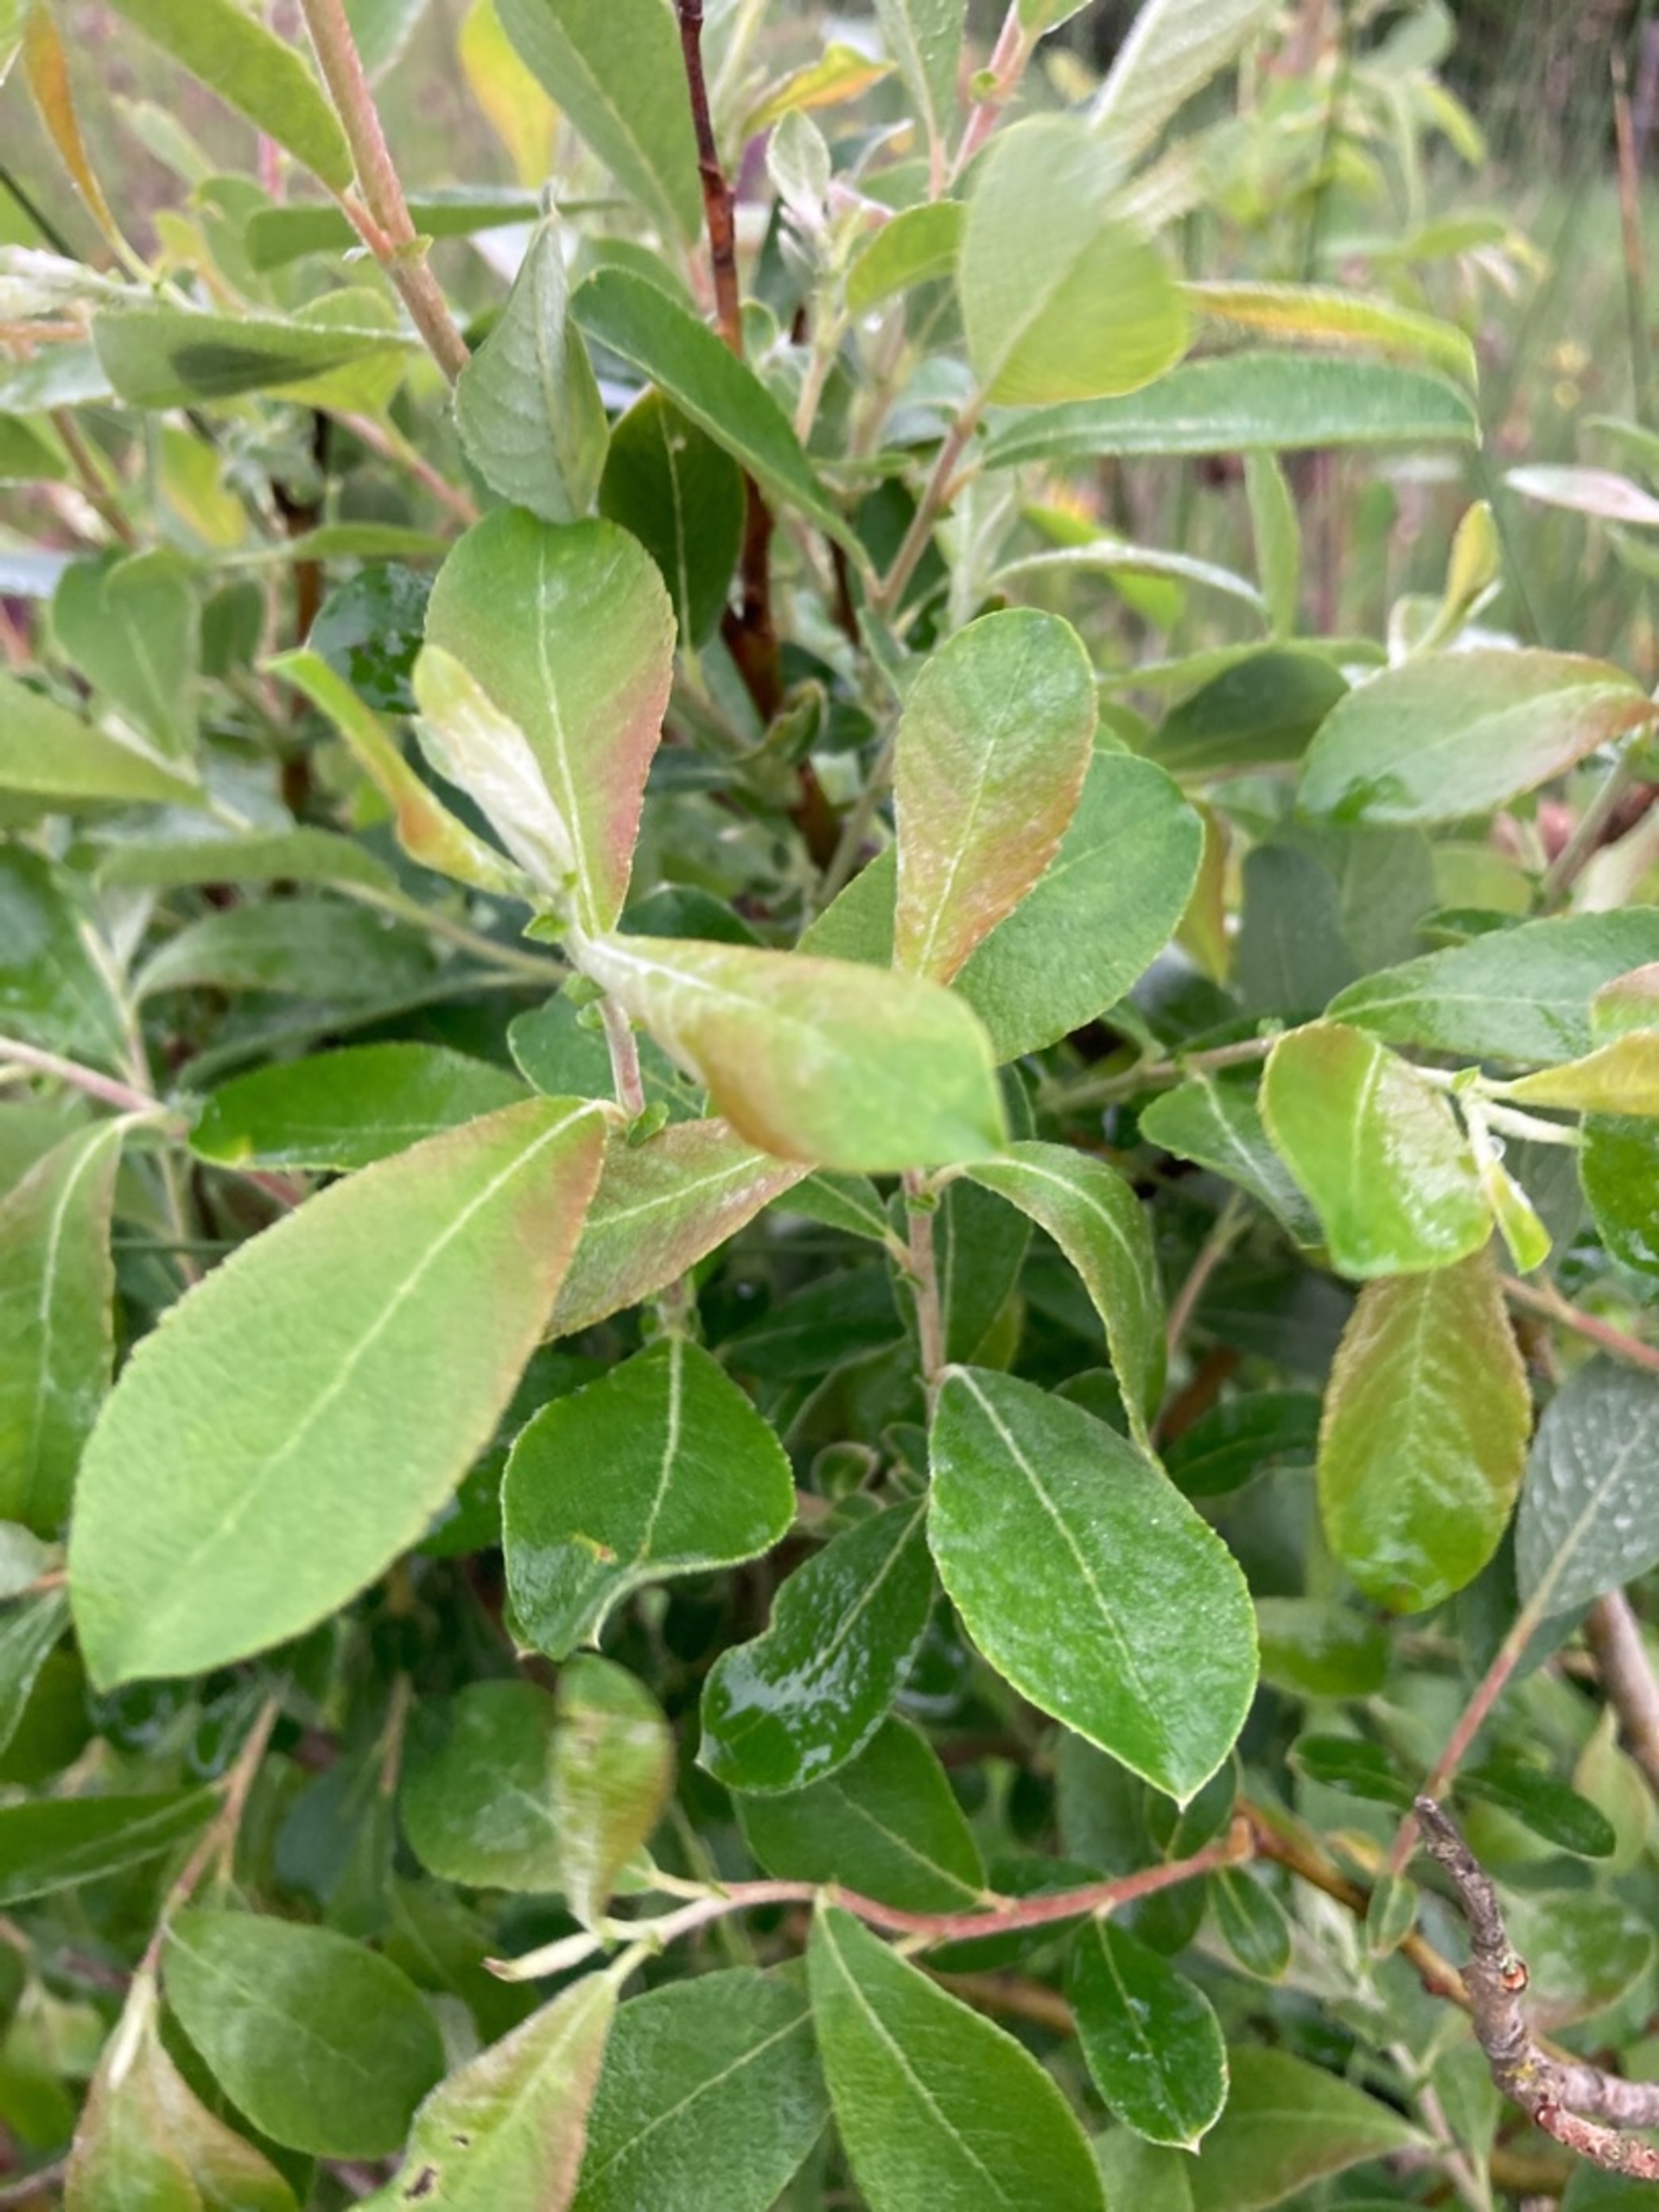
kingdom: Plantae
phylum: Tracheophyta
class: Magnoliopsida
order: Malpighiales
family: Salicaceae
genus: Salix
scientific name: Salix cinerea
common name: Grå-pil
